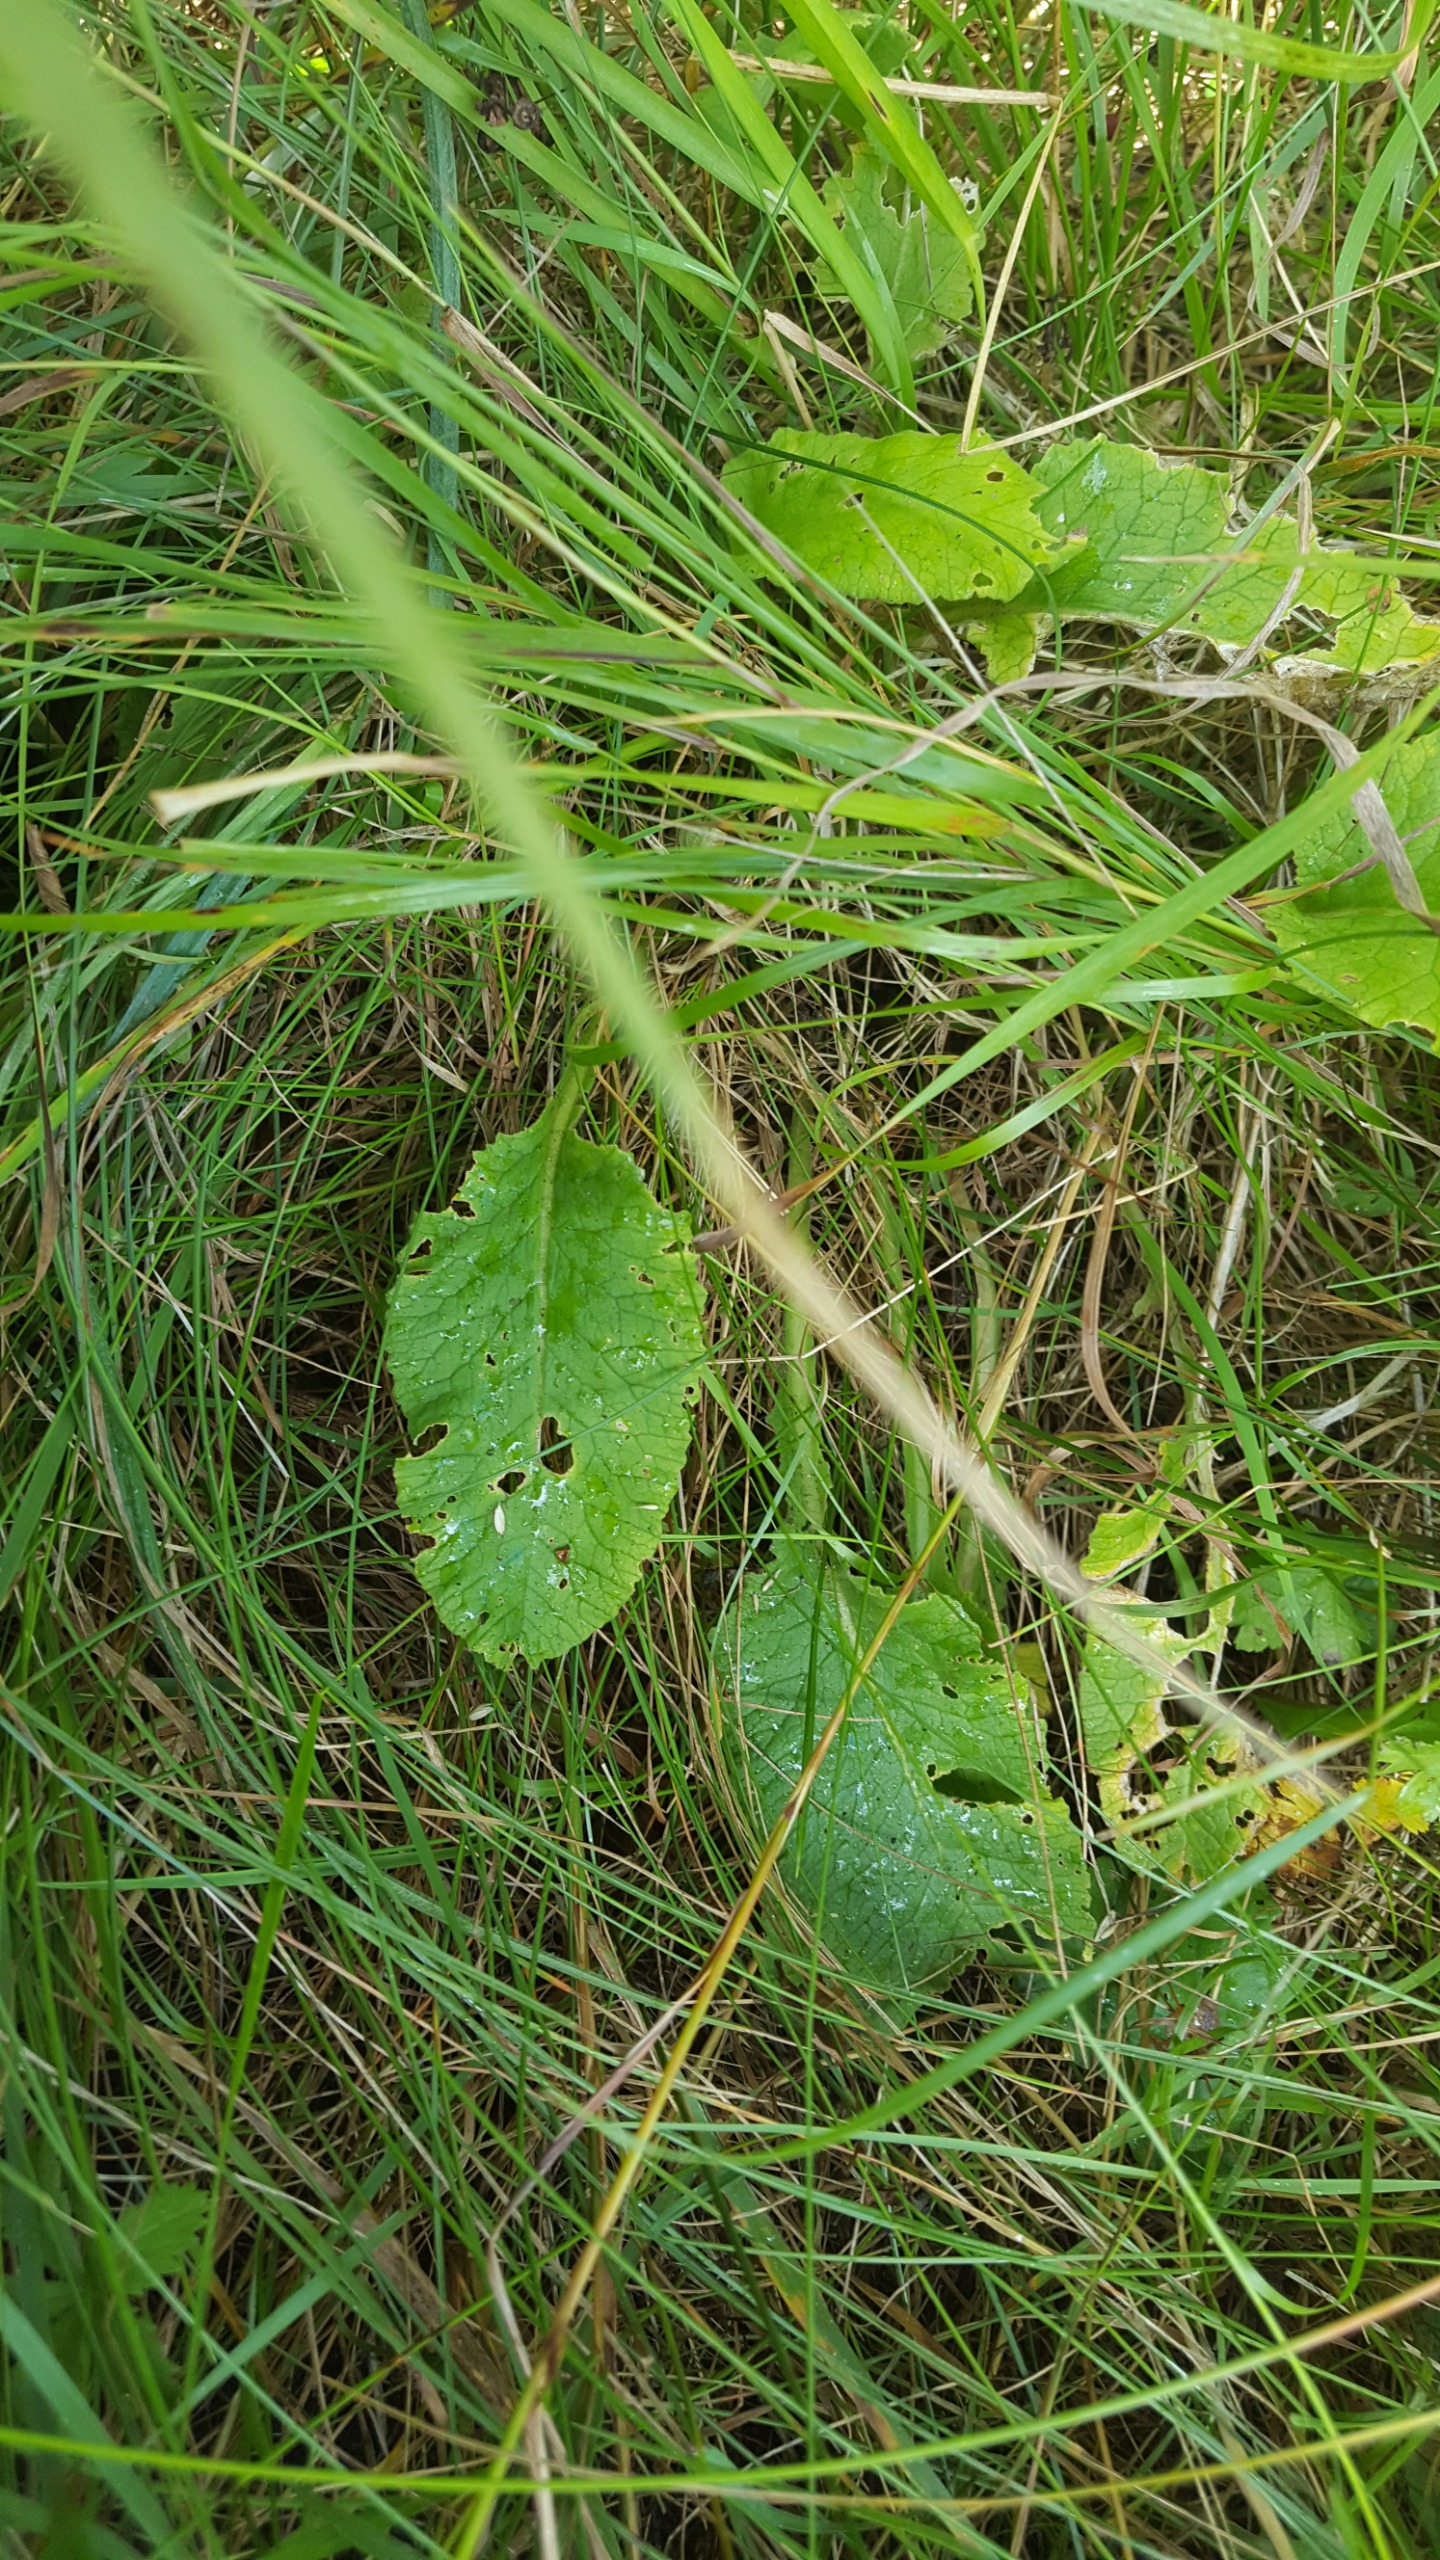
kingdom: Plantae
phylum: Tracheophyta
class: Magnoliopsida
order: Ericales
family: Primulaceae
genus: Primula
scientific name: Primula veris
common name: Hulkravet kodriver
